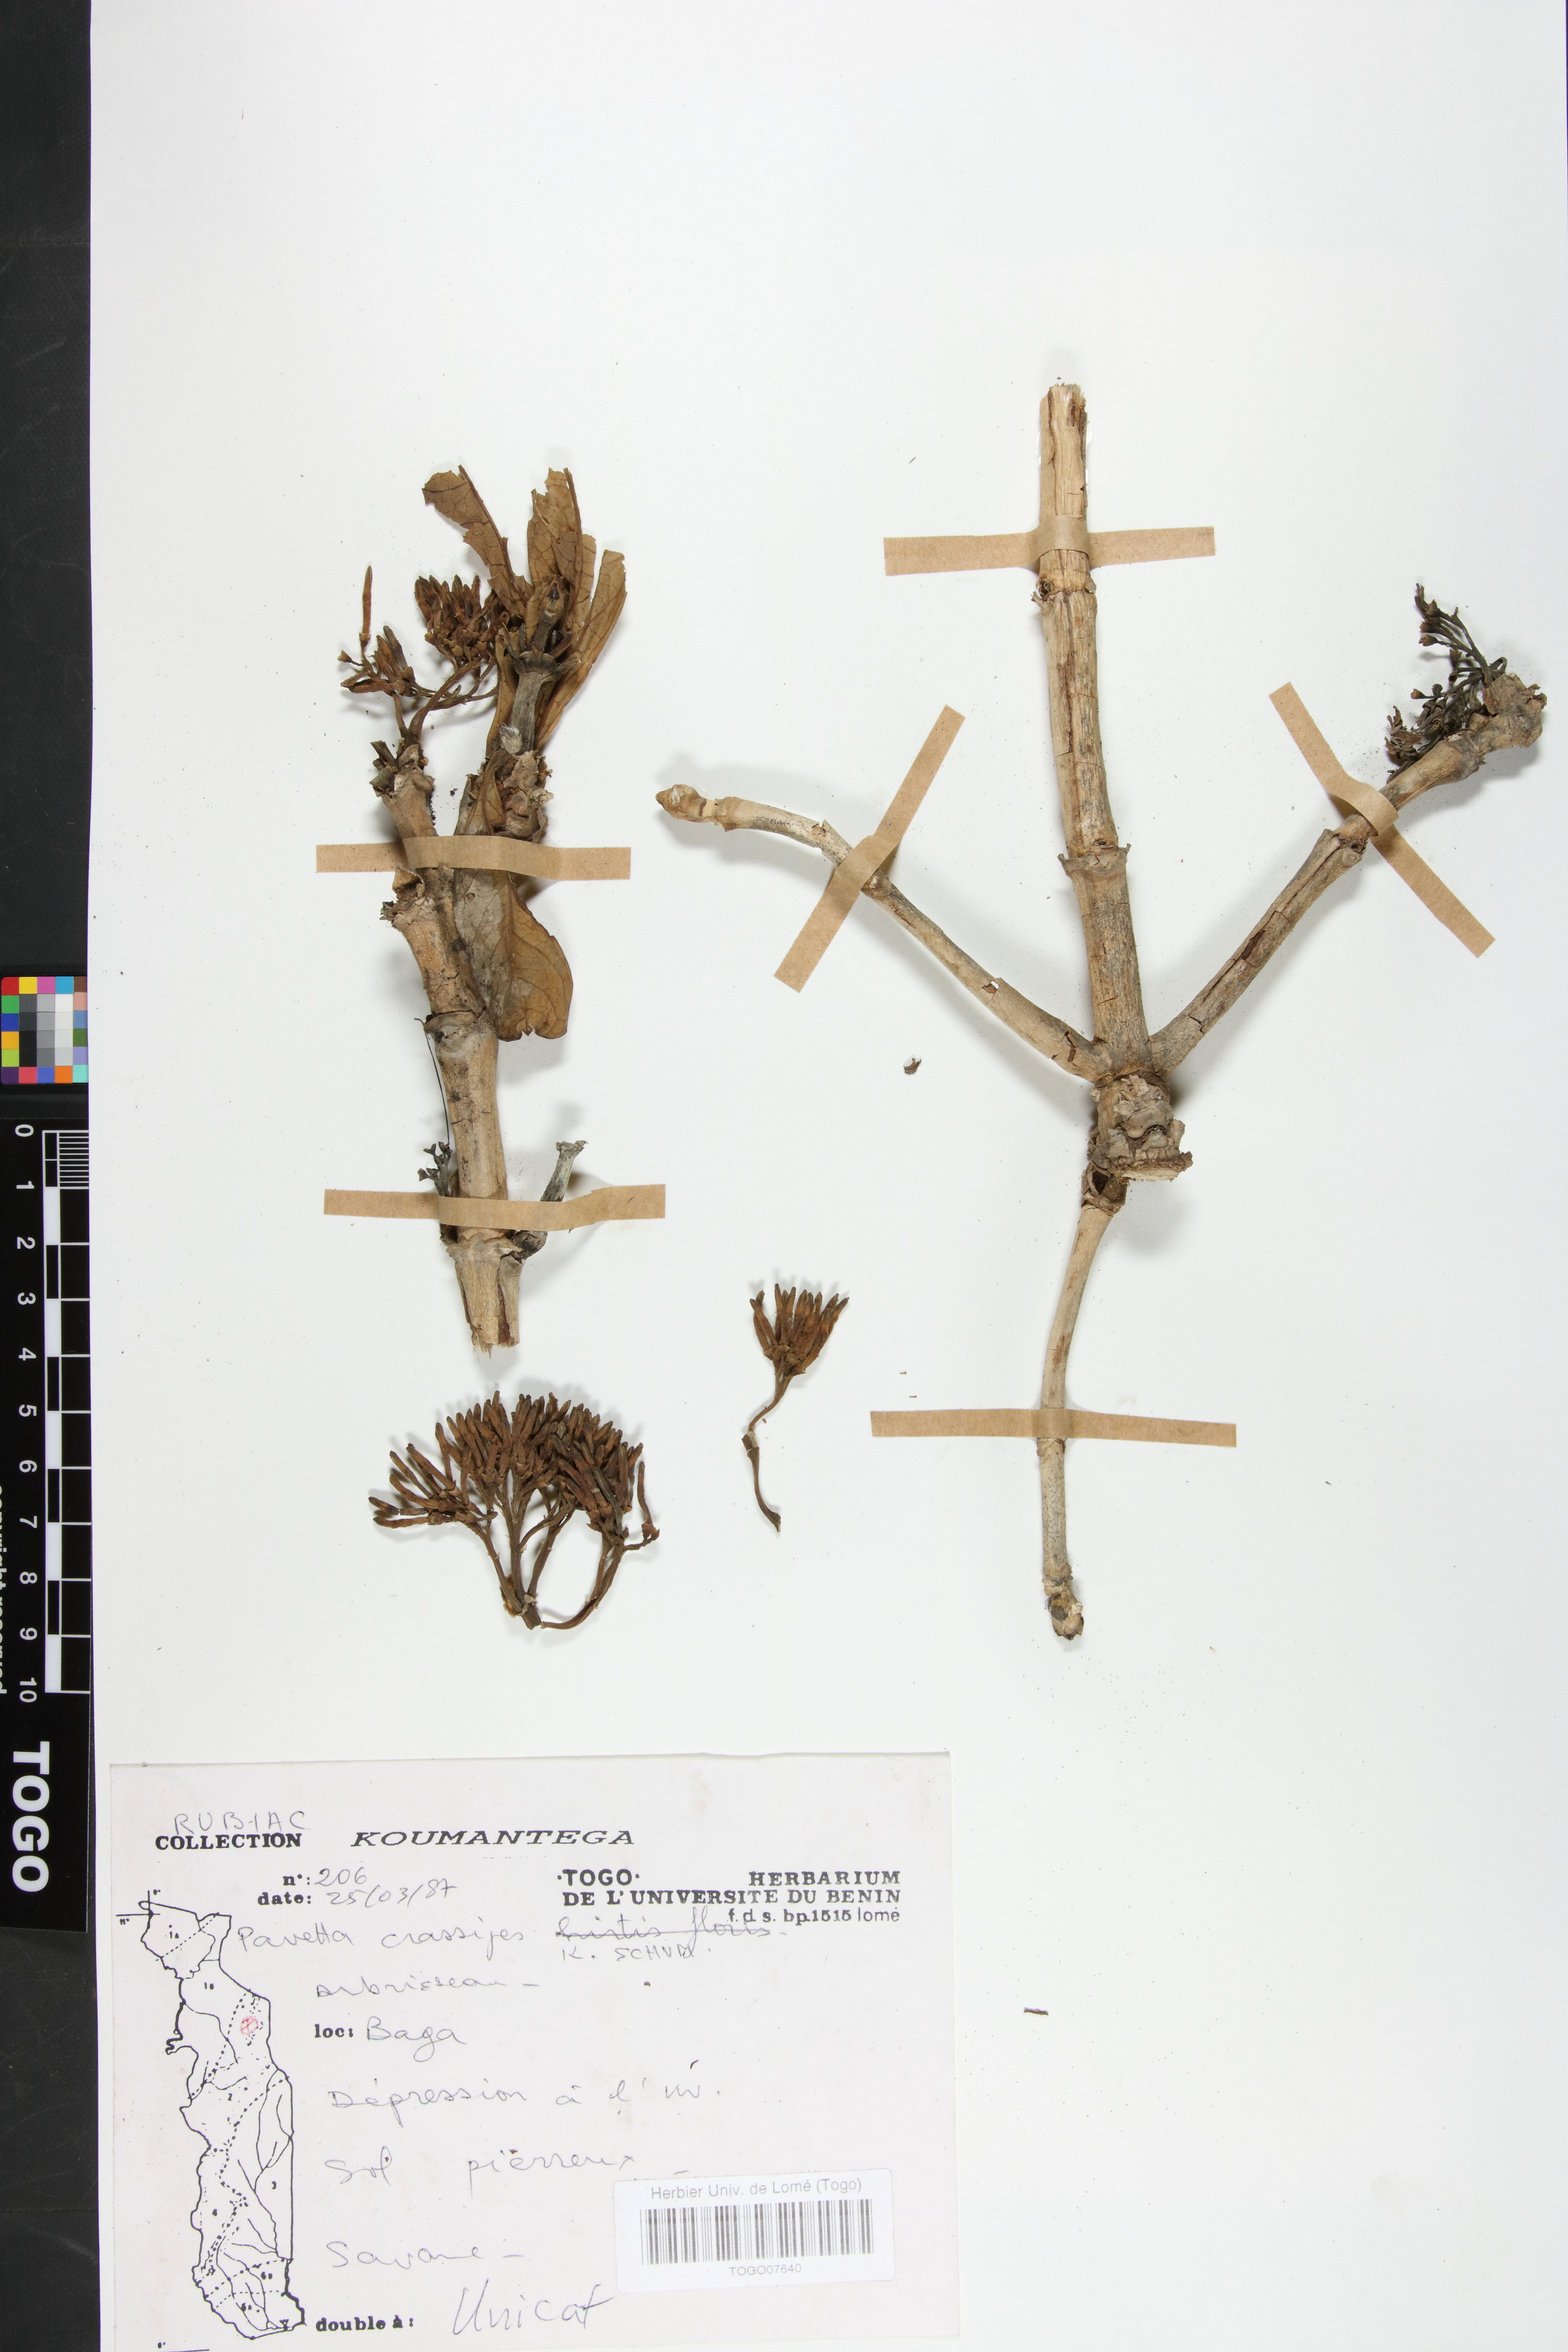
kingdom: Plantae
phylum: Tracheophyta
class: Magnoliopsida
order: Gentianales
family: Rubiaceae
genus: Pavetta
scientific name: Pavetta crassipes
